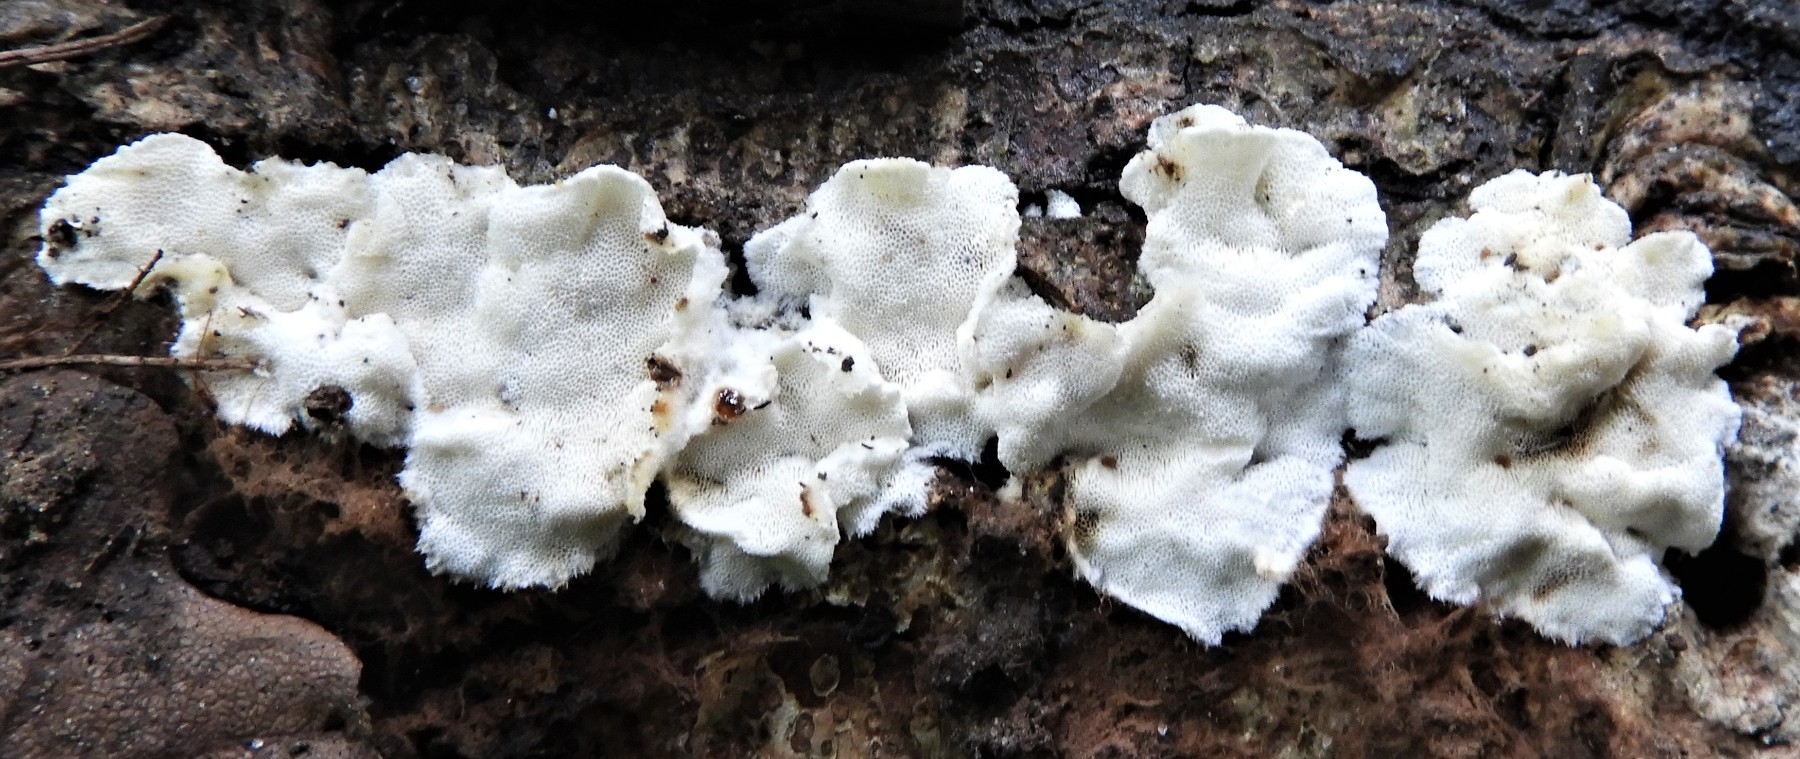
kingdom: Fungi
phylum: Basidiomycota
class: Agaricomycetes
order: Polyporales
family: Polyporaceae
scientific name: Polyporaceae
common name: poresvampfamilien
